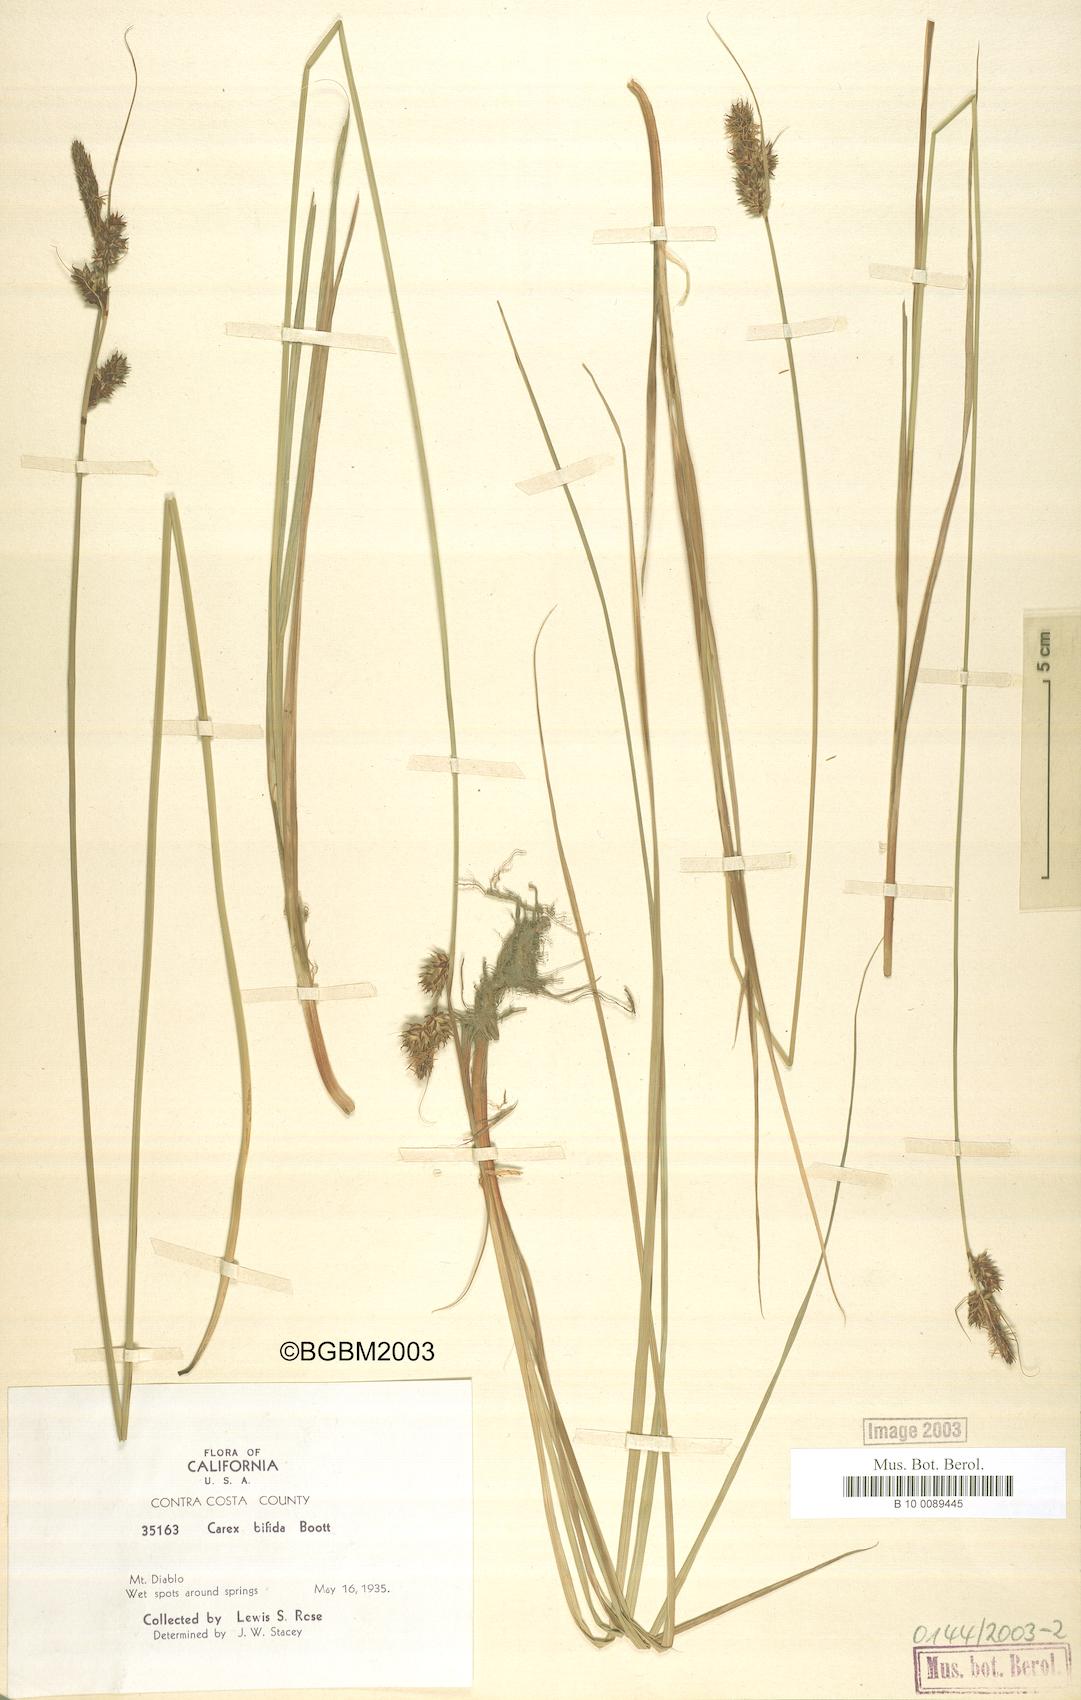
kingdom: Plantae
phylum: Tracheophyta
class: Liliopsida
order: Poales
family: Cyperaceae
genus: Carex
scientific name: Carex serratodens
